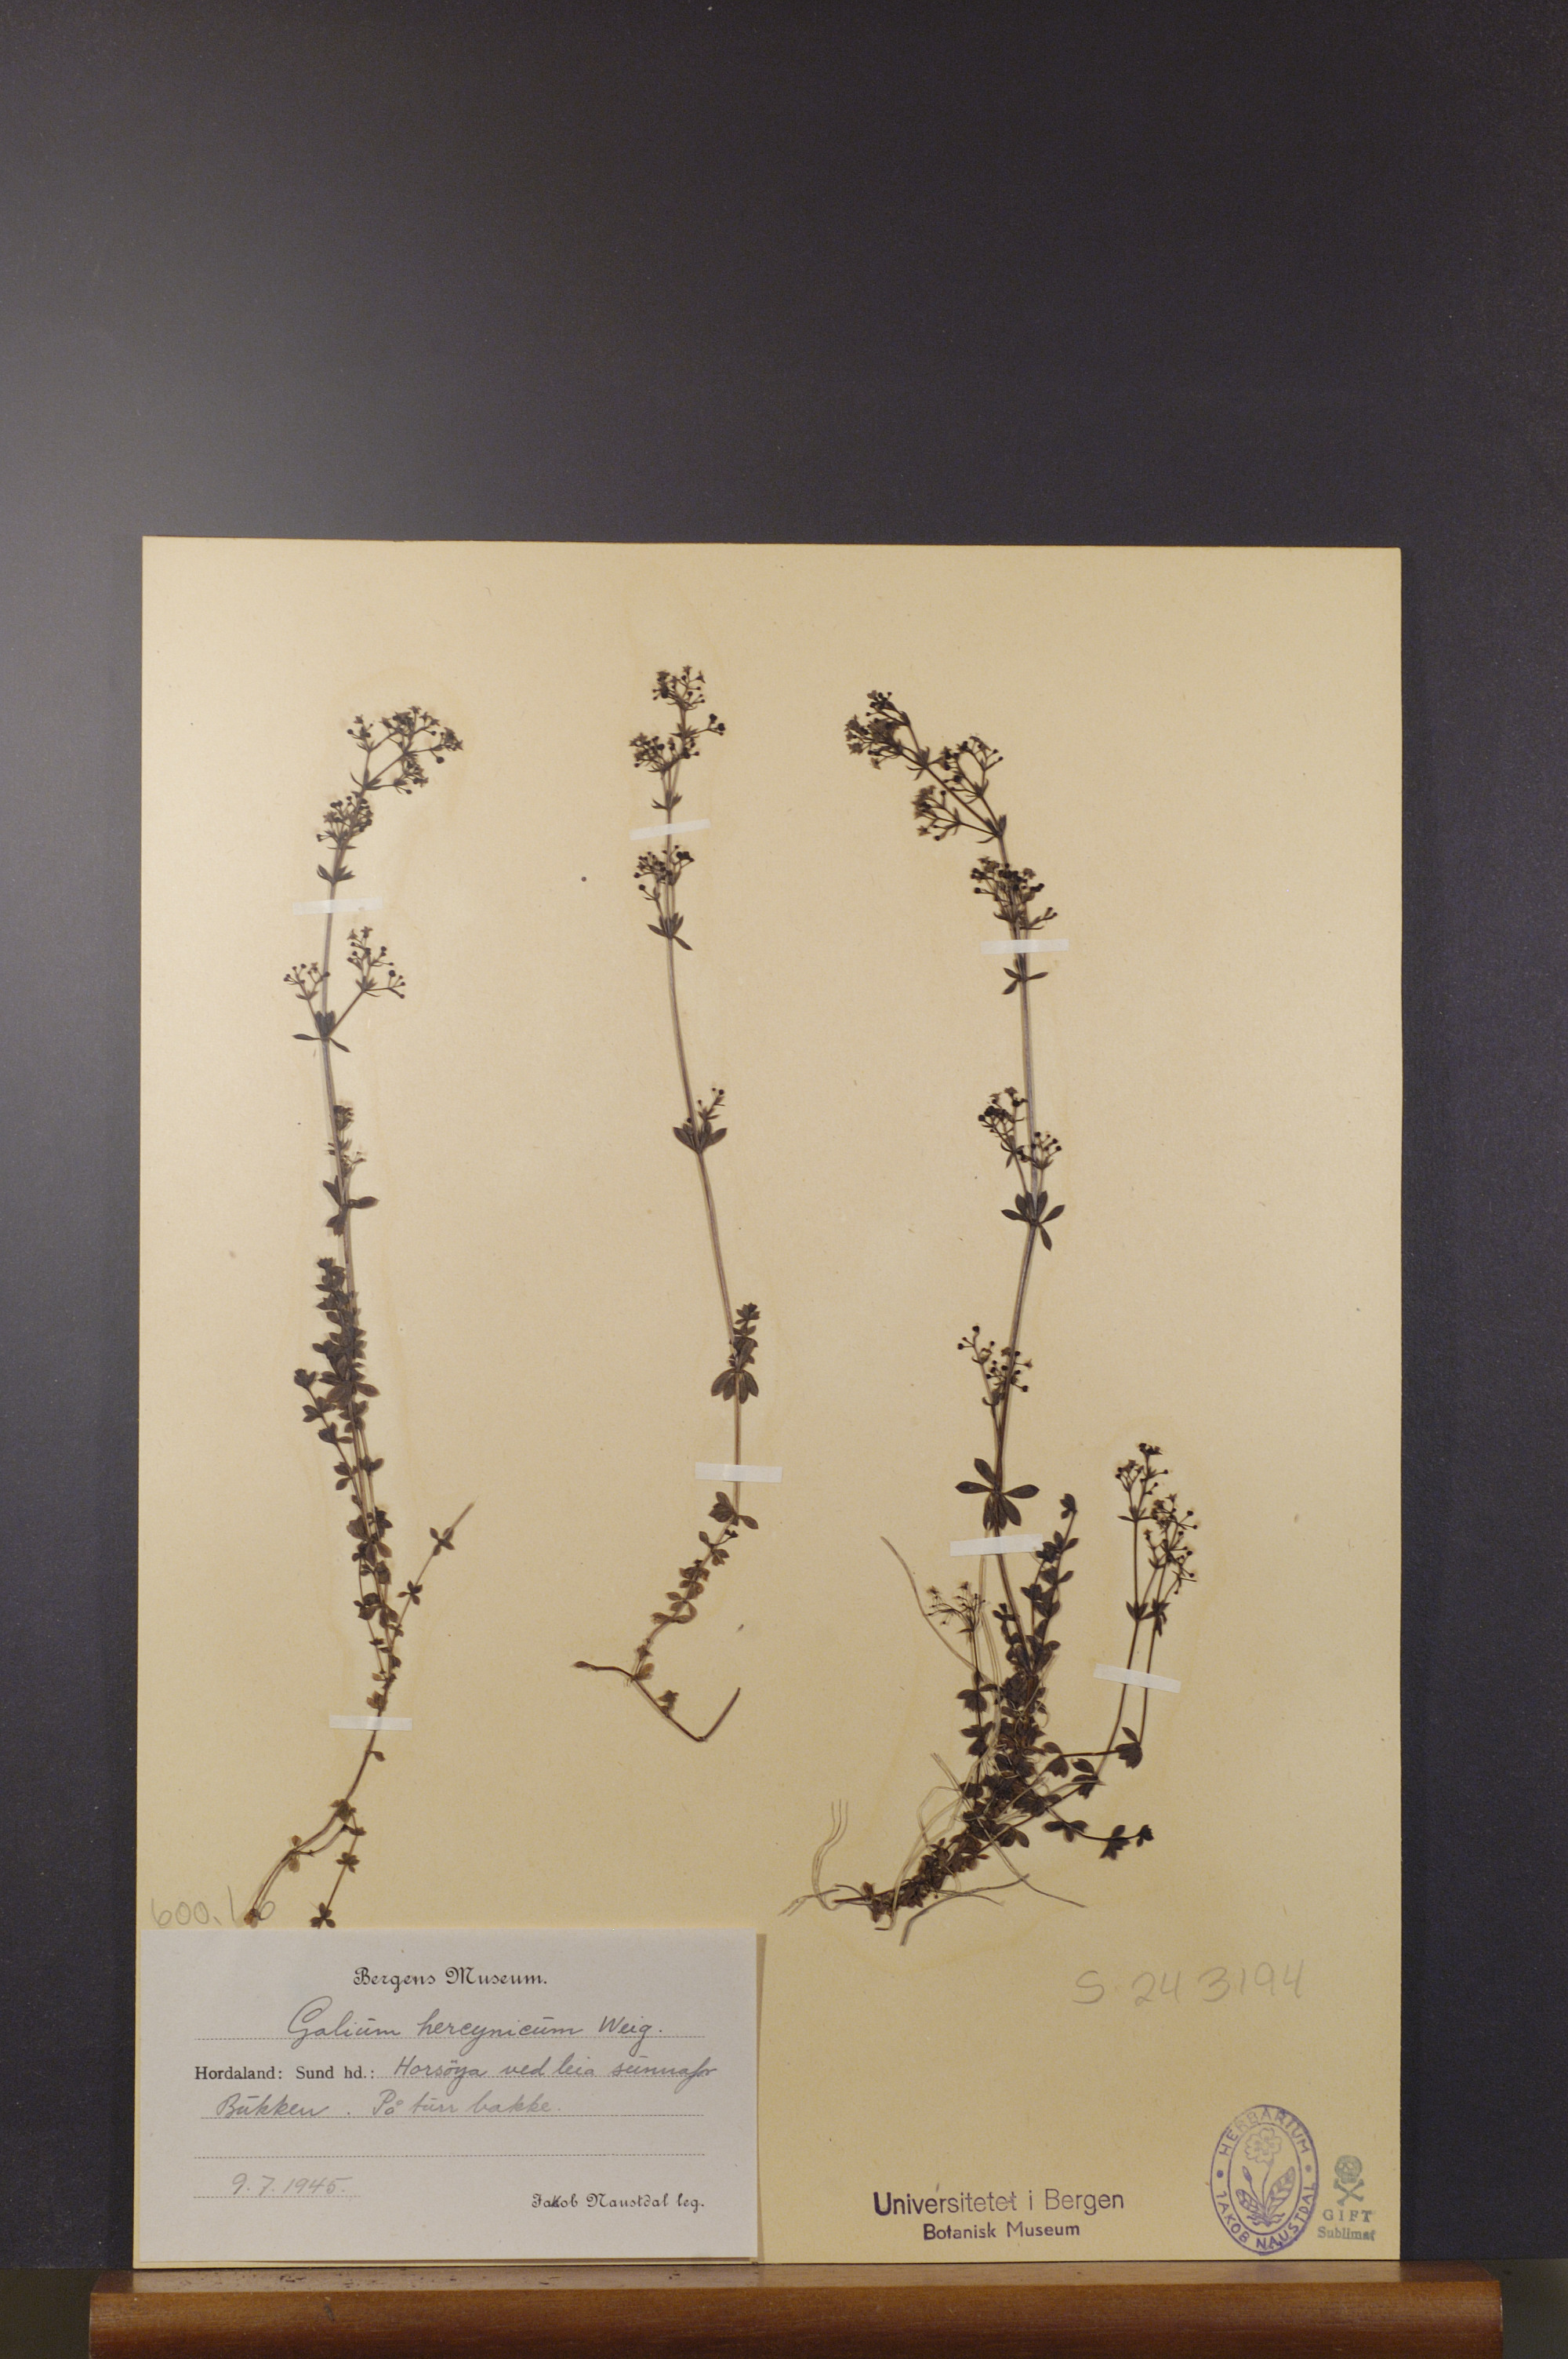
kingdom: Plantae
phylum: Tracheophyta
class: Magnoliopsida
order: Gentianales
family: Rubiaceae
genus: Galium
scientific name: Galium saxatile
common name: Heath bedstraw
